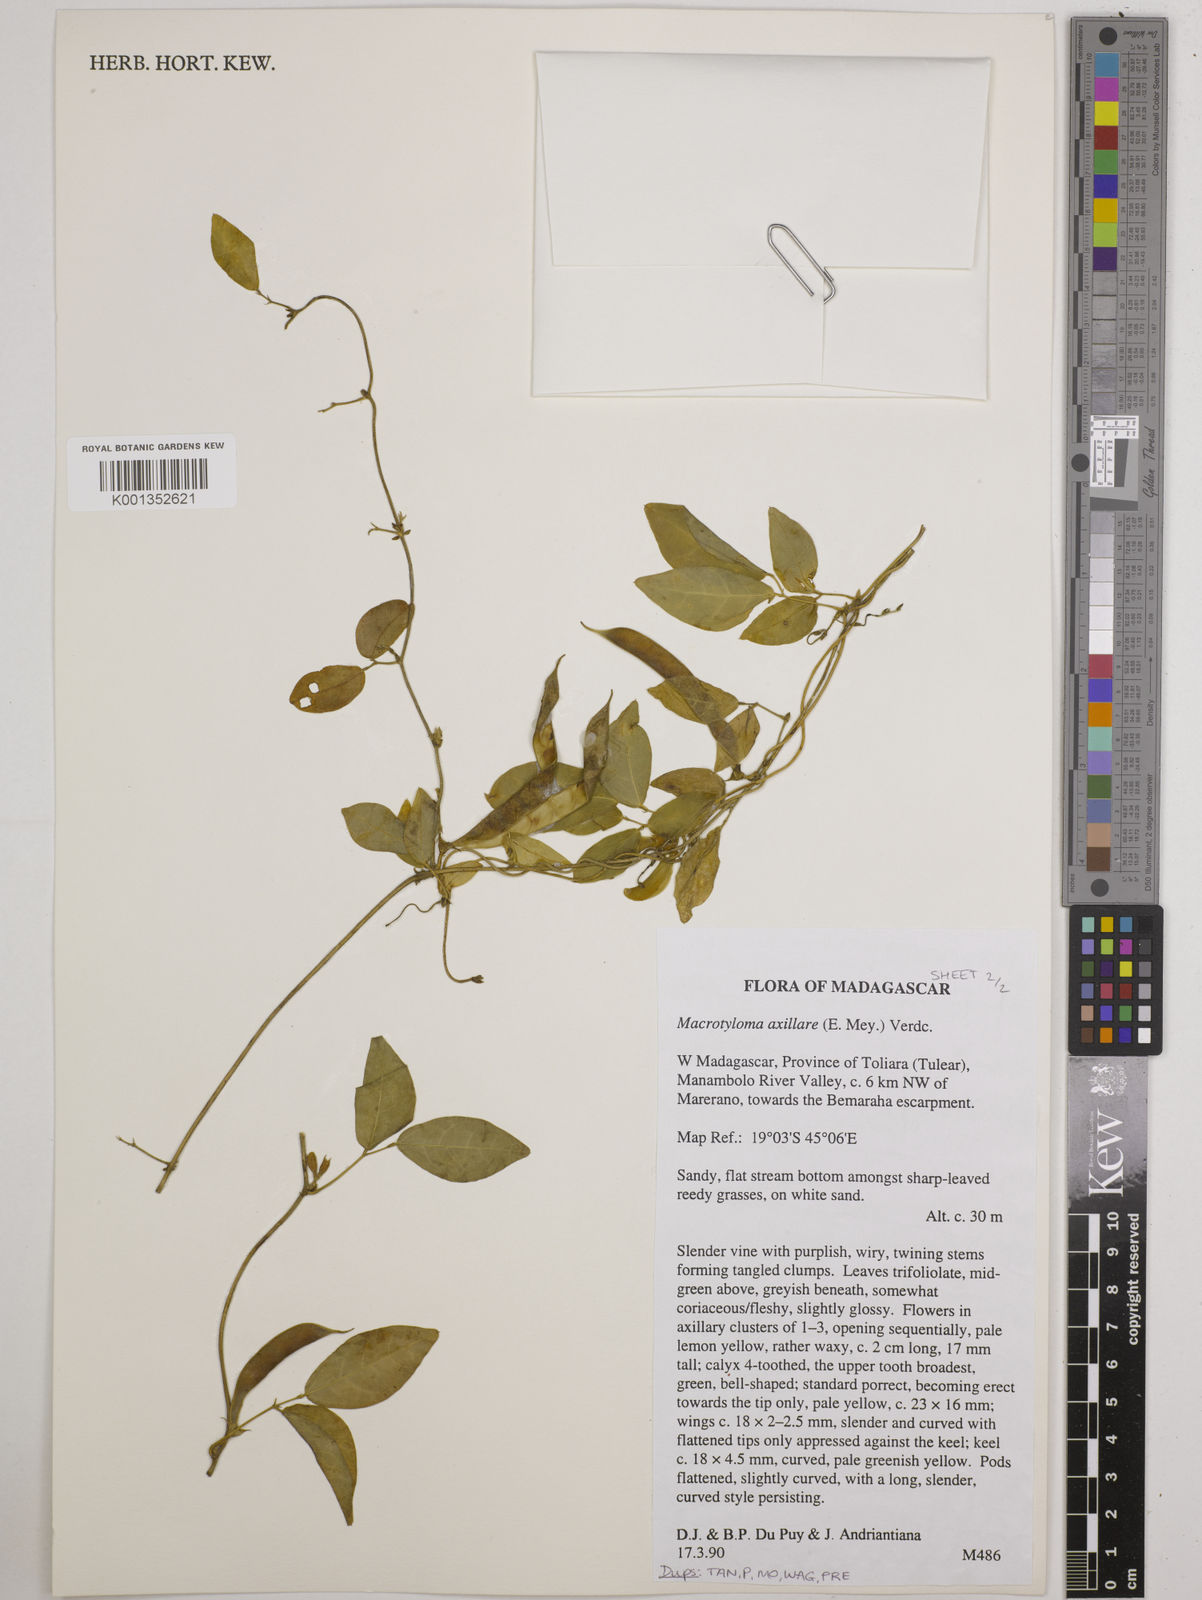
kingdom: Plantae
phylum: Tracheophyta
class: Magnoliopsida
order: Fabales
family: Fabaceae
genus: Macrotyloma
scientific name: Macrotyloma
